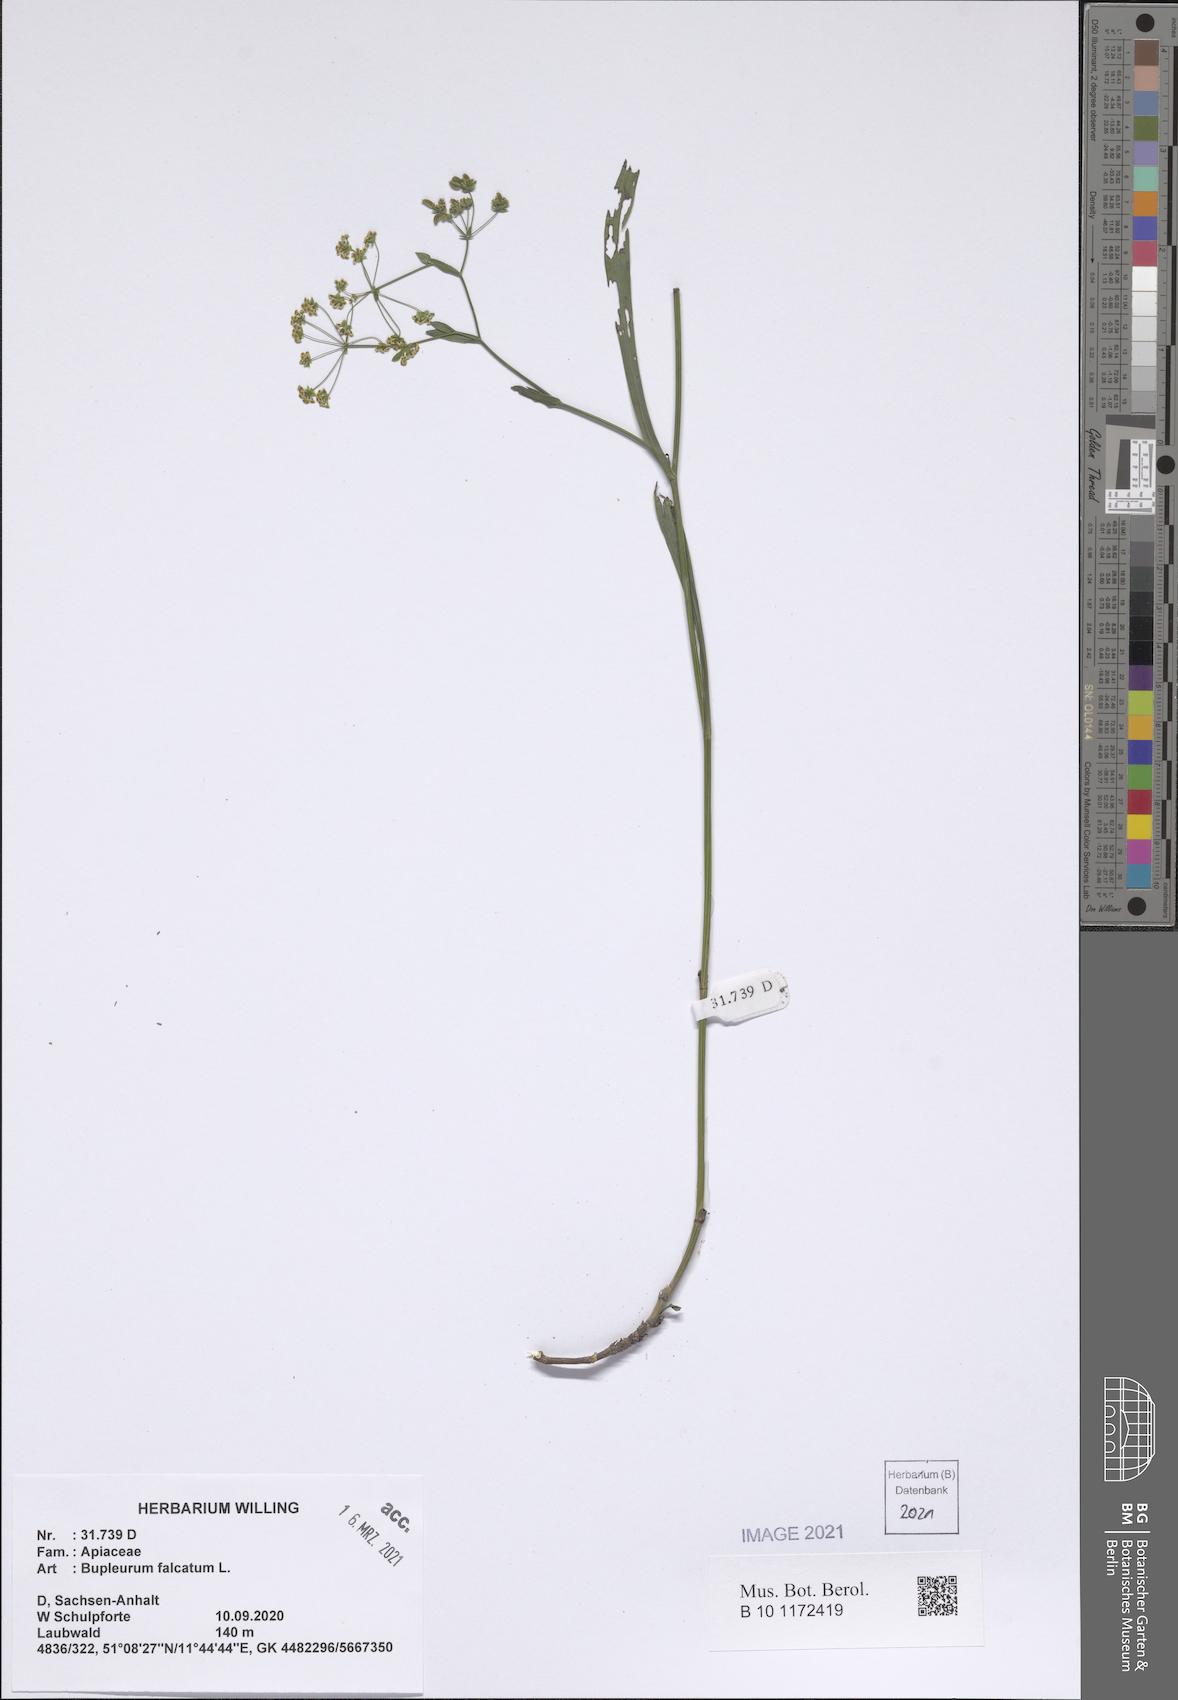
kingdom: Plantae
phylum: Tracheophyta
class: Magnoliopsida
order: Apiales
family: Apiaceae
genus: Bupleurum
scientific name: Bupleurum falcatum
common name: Sickle-leaved hare's-ear
